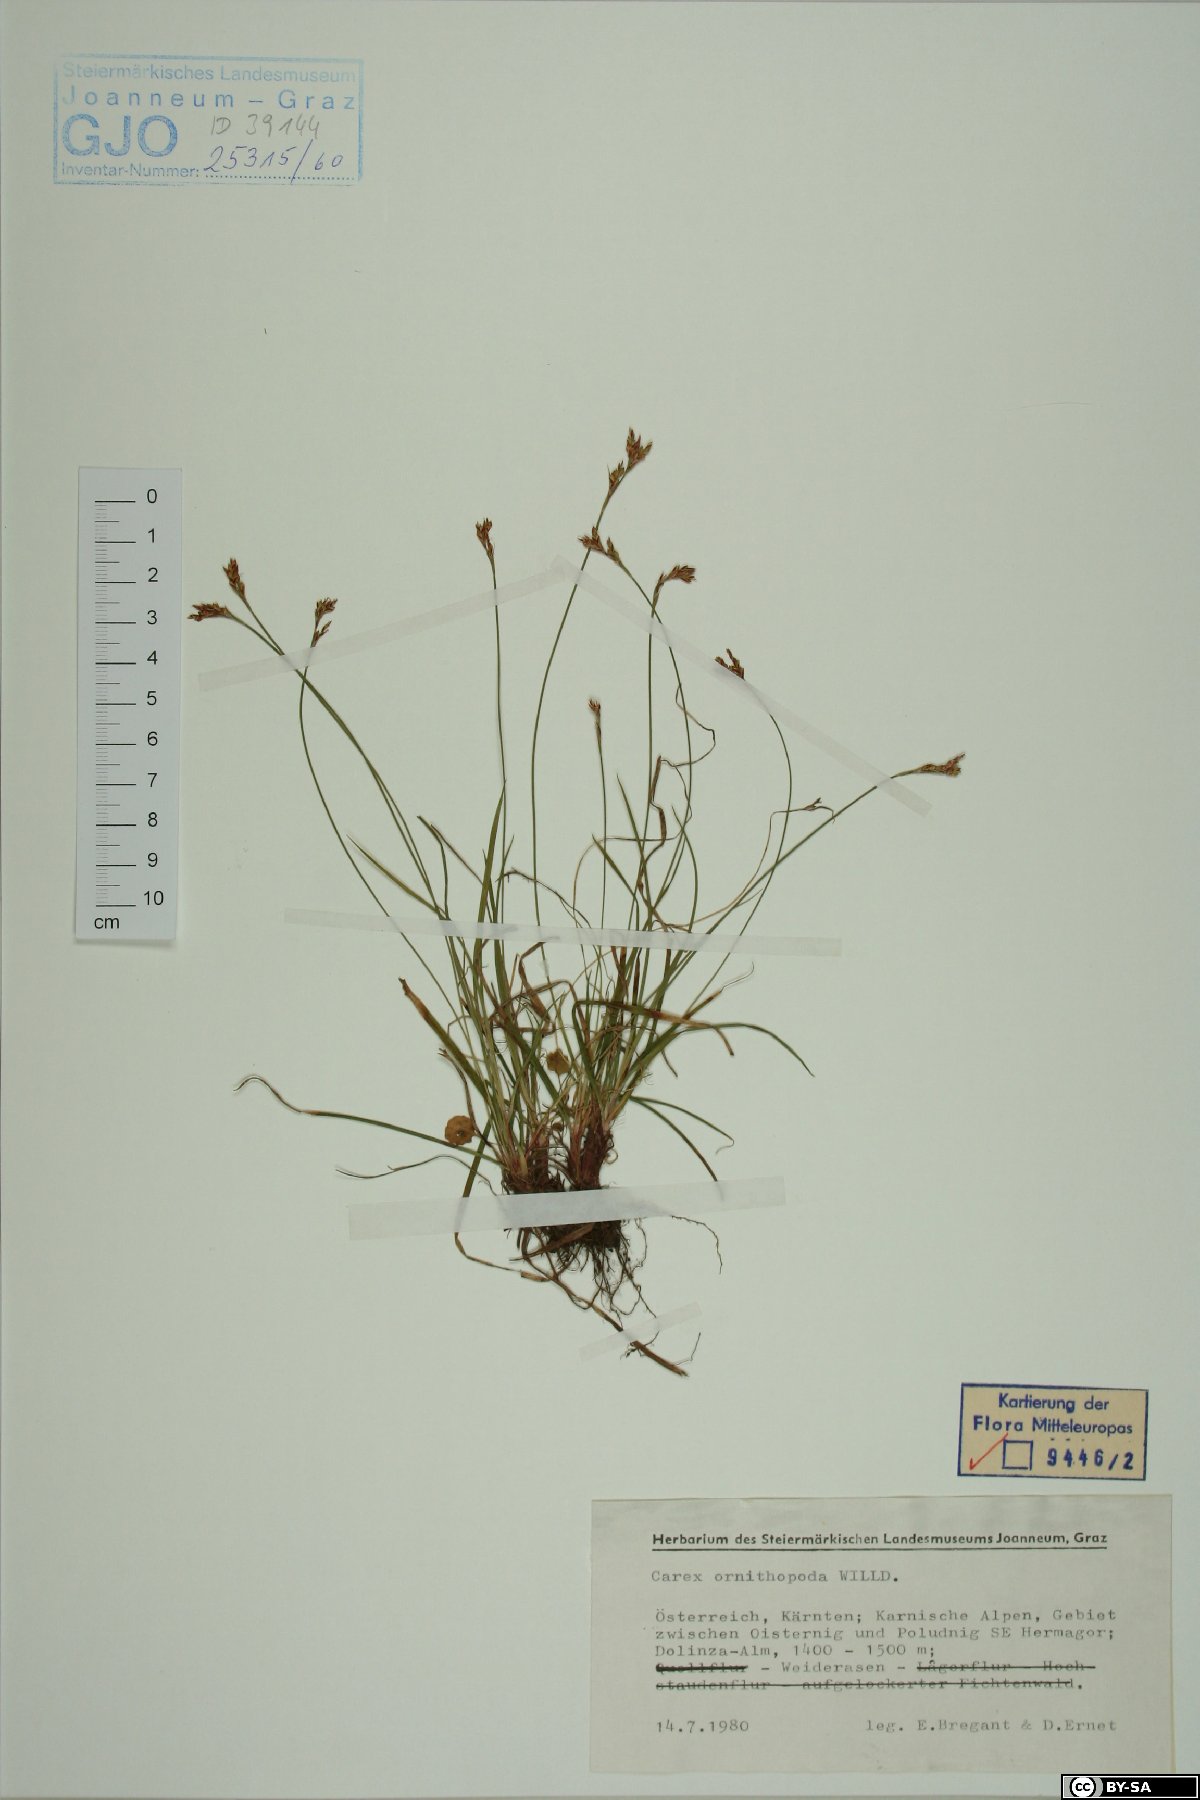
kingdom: Plantae
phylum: Tracheophyta
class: Liliopsida
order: Poales
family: Cyperaceae
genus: Carex
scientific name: Carex ornithopoda
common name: Bird's-foot sedge
